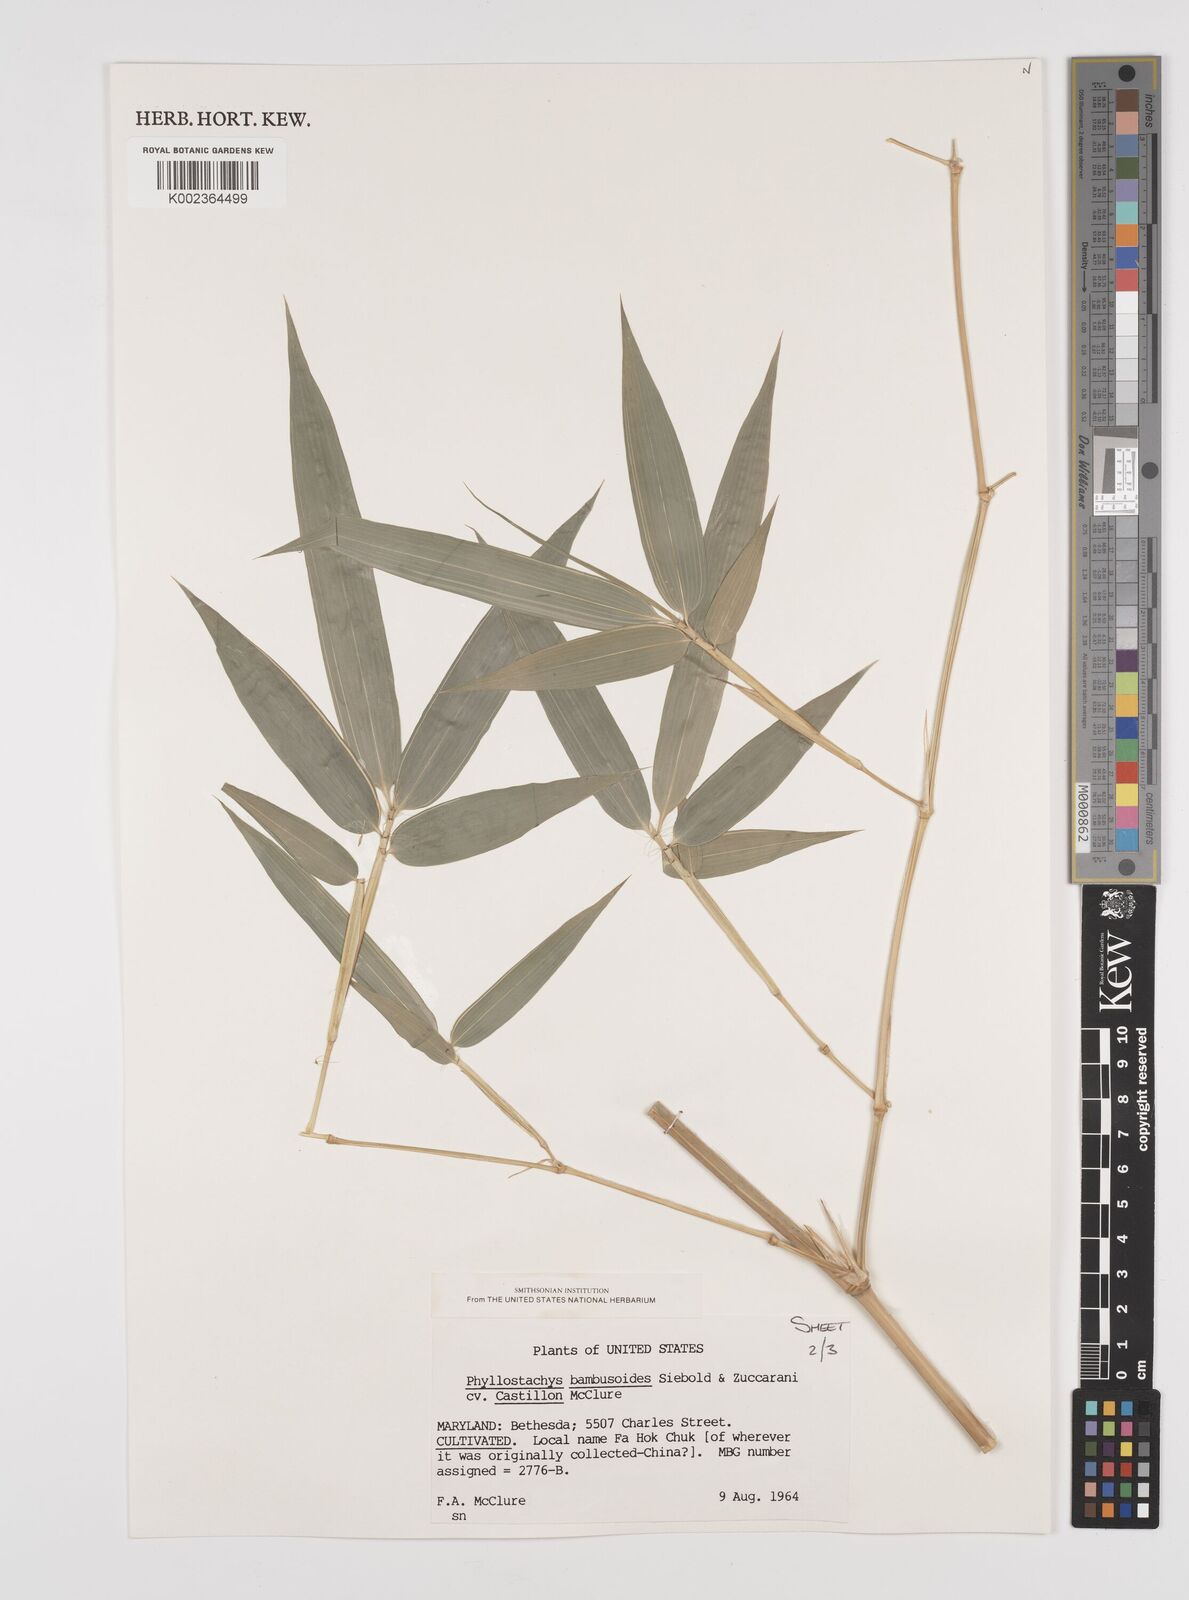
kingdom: Plantae
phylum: Tracheophyta
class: Liliopsida
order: Poales
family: Poaceae
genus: Phyllostachys
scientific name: Phyllostachys reticulata
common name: Bamboo
